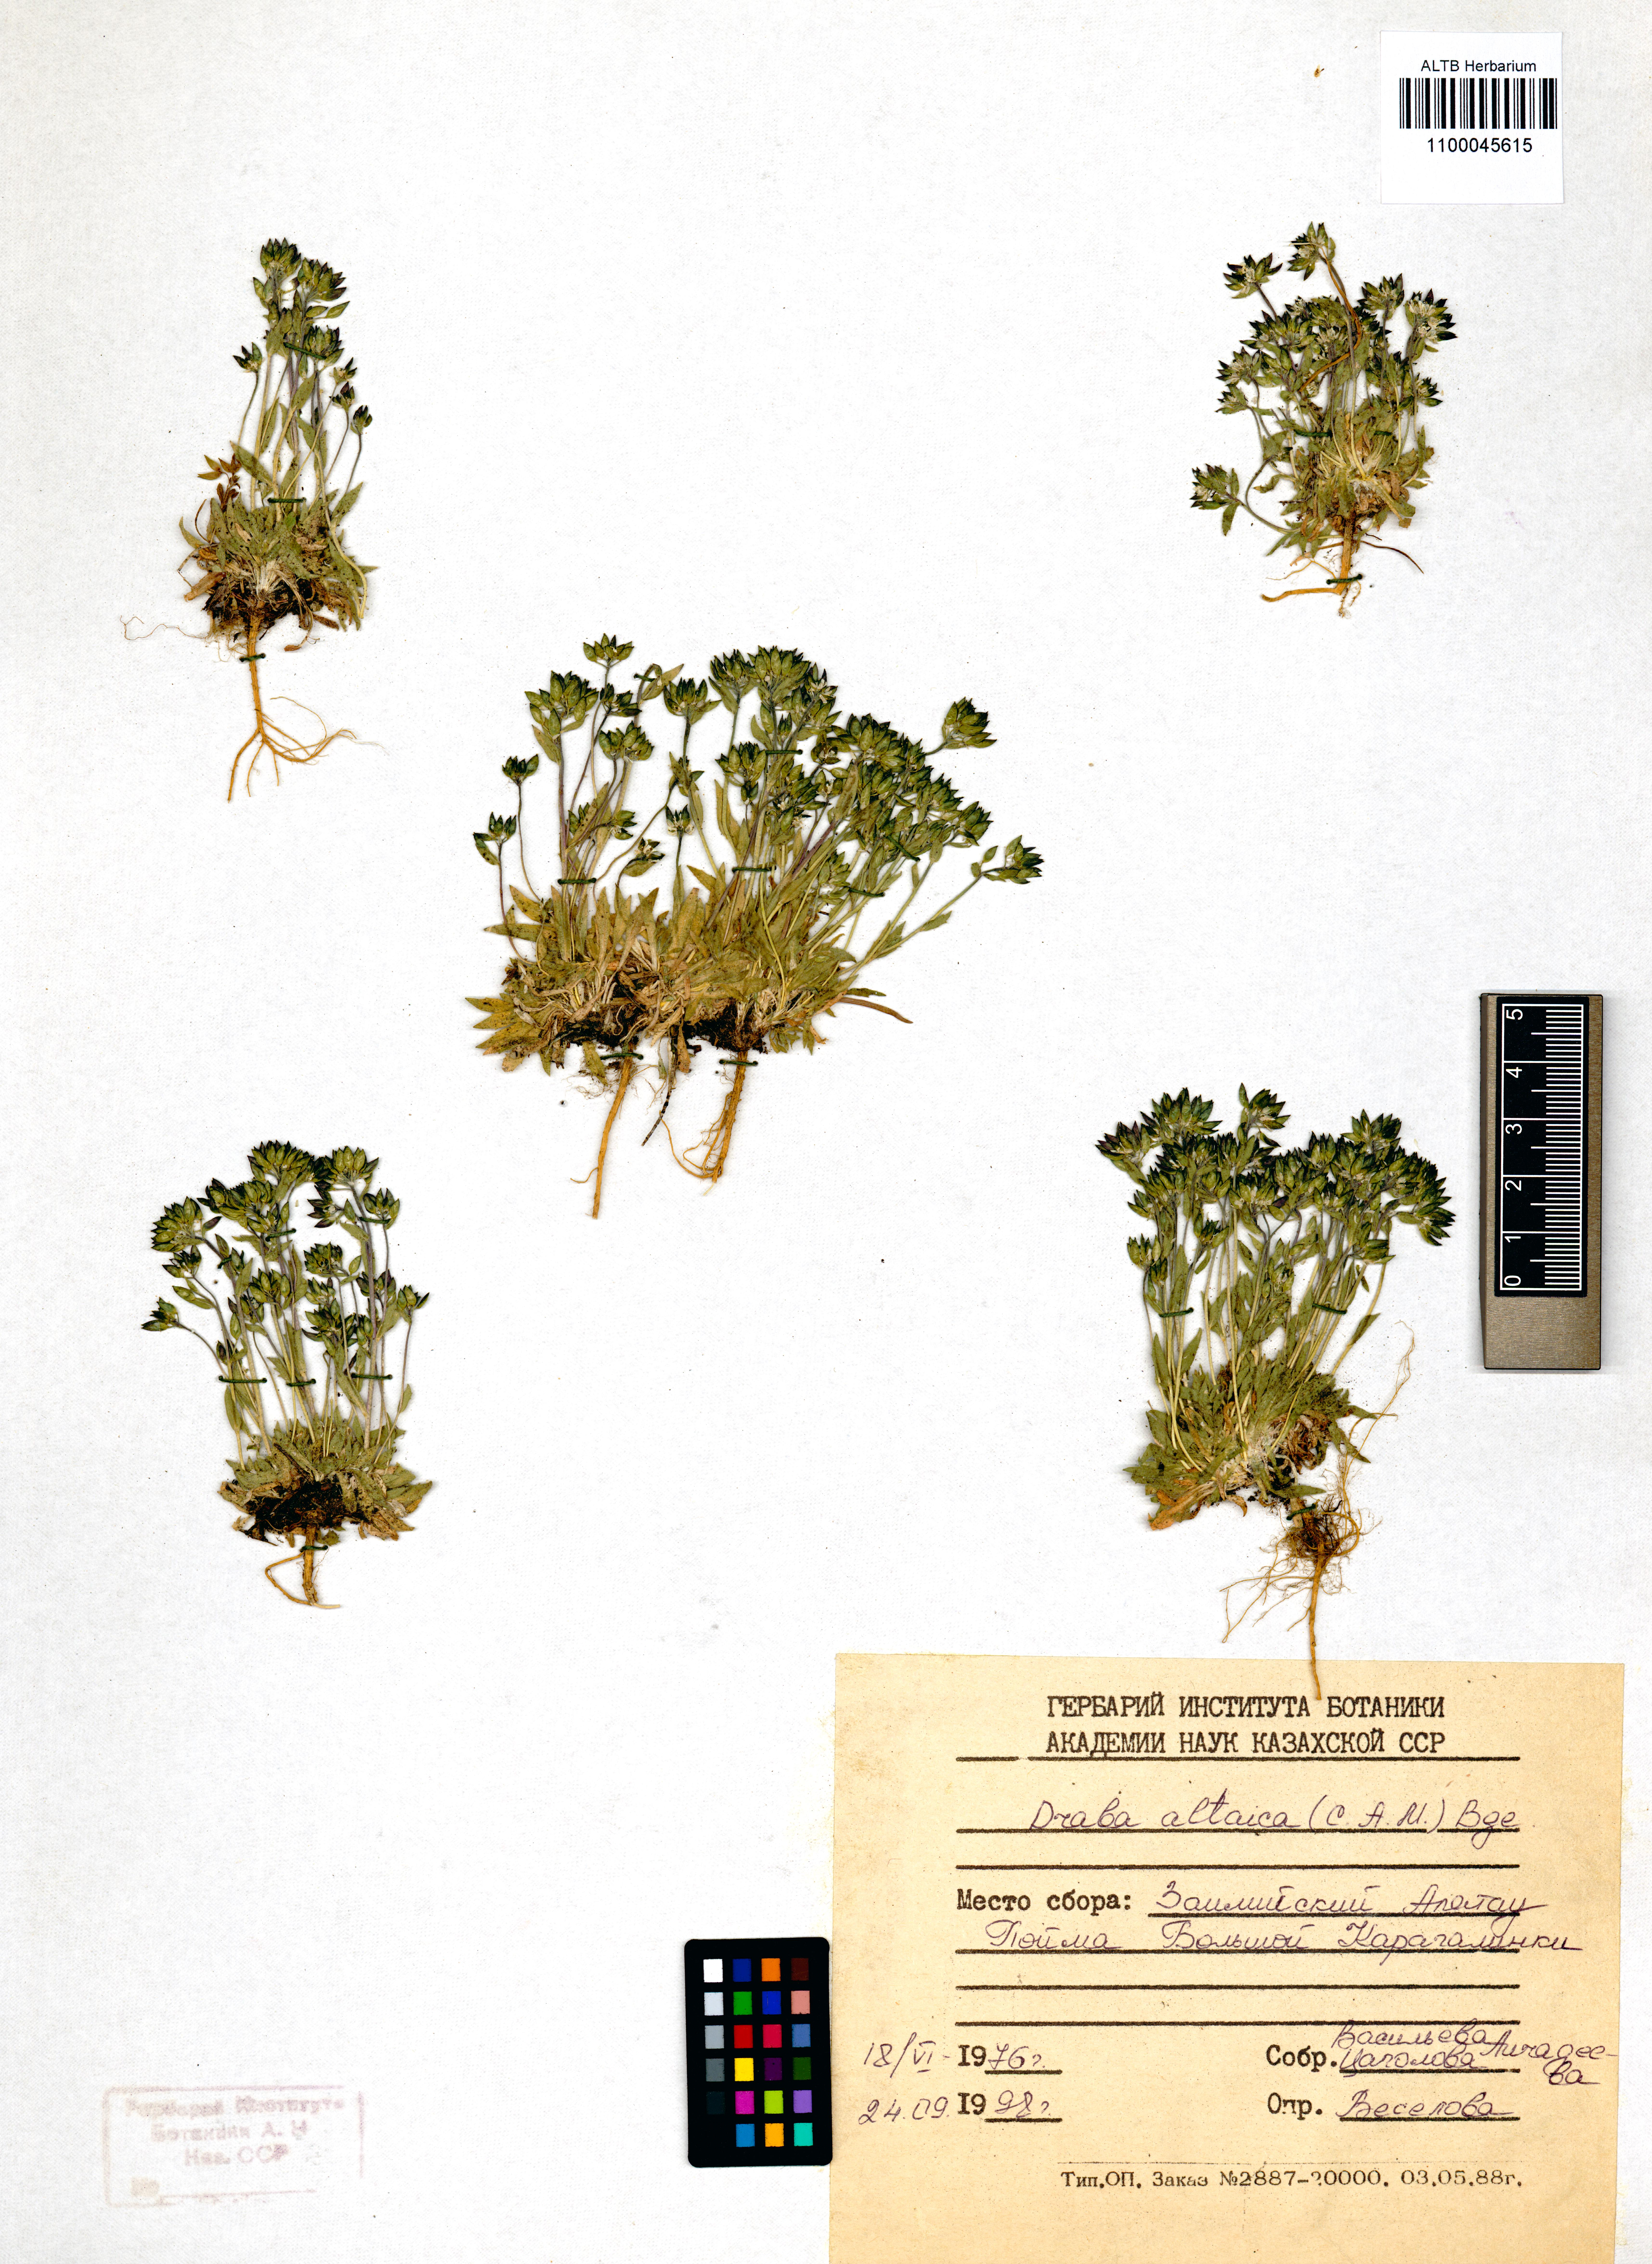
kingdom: Plantae
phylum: Tracheophyta
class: Magnoliopsida
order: Brassicales
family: Brassicaceae
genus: Draba
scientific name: Draba altaica
